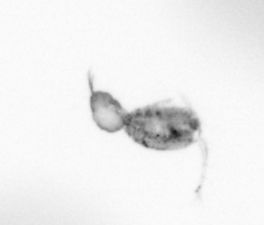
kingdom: Animalia
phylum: Arthropoda
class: Copepoda
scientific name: Copepoda
